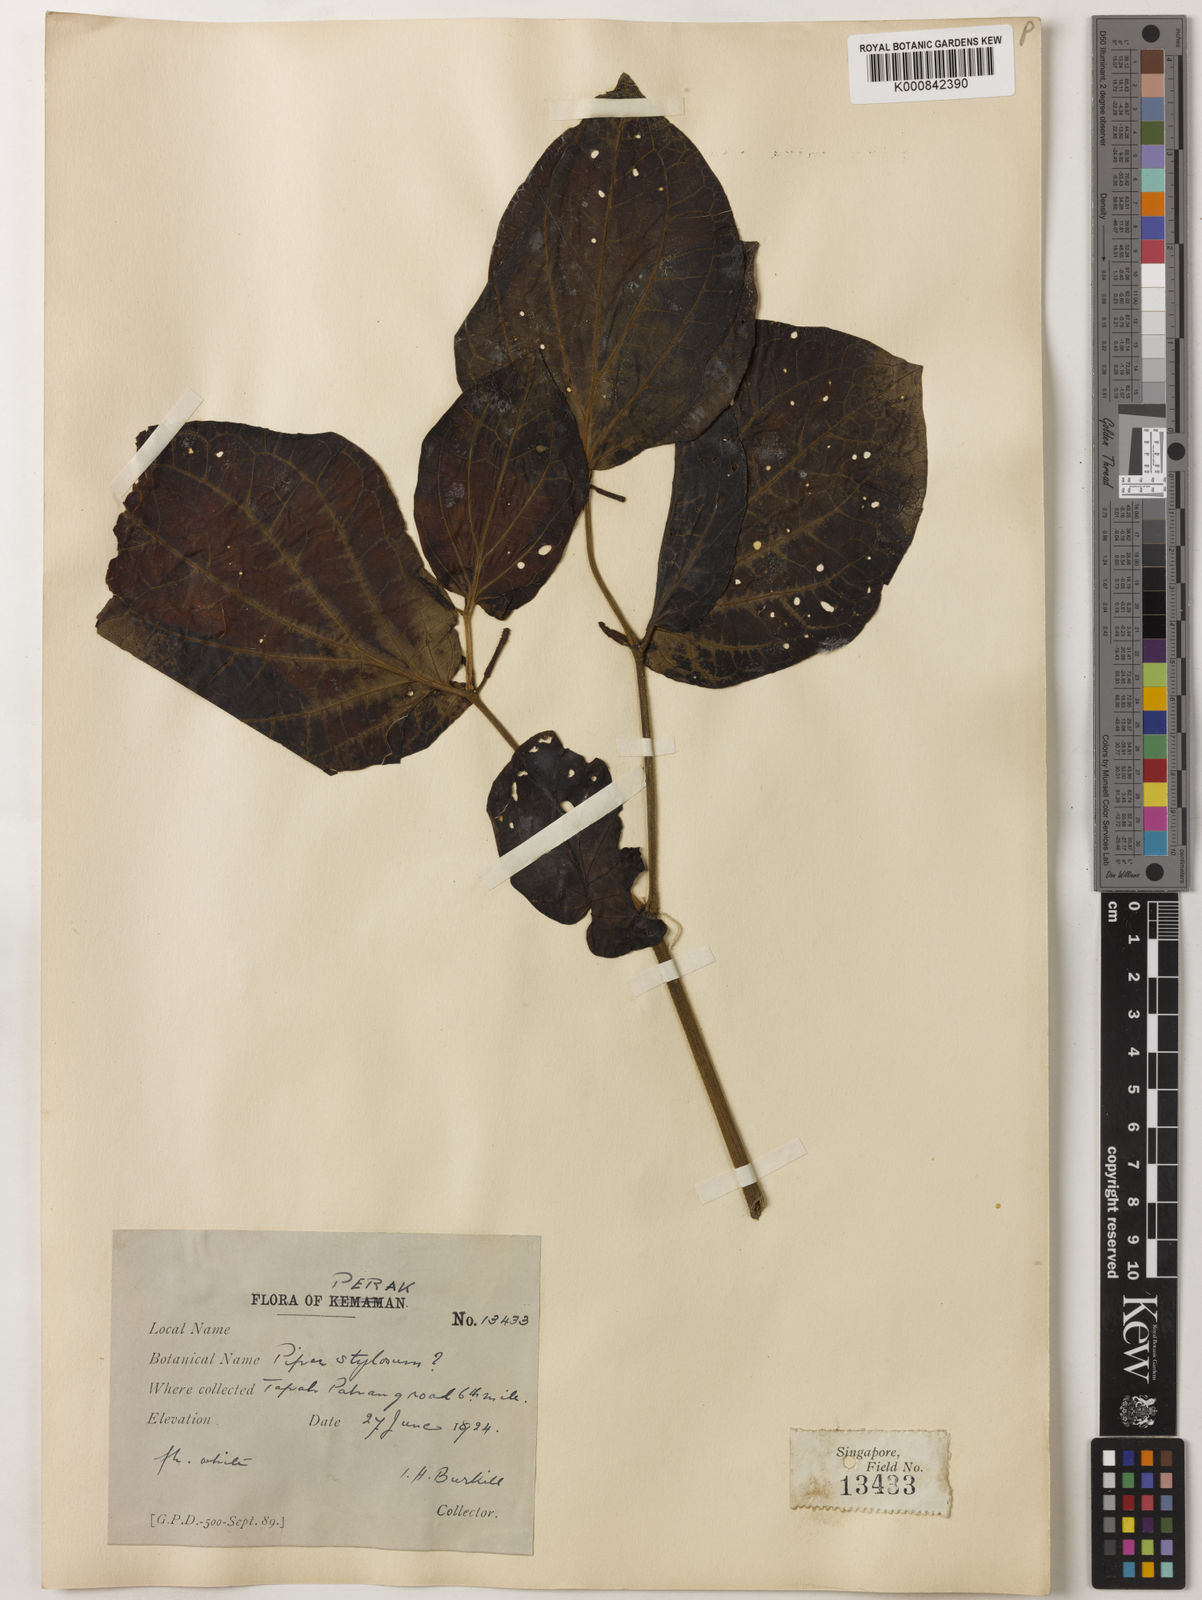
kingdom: Plantae
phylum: Tracheophyta
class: Magnoliopsida
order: Piperales
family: Piperaceae
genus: Piper
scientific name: Piper rostratum
